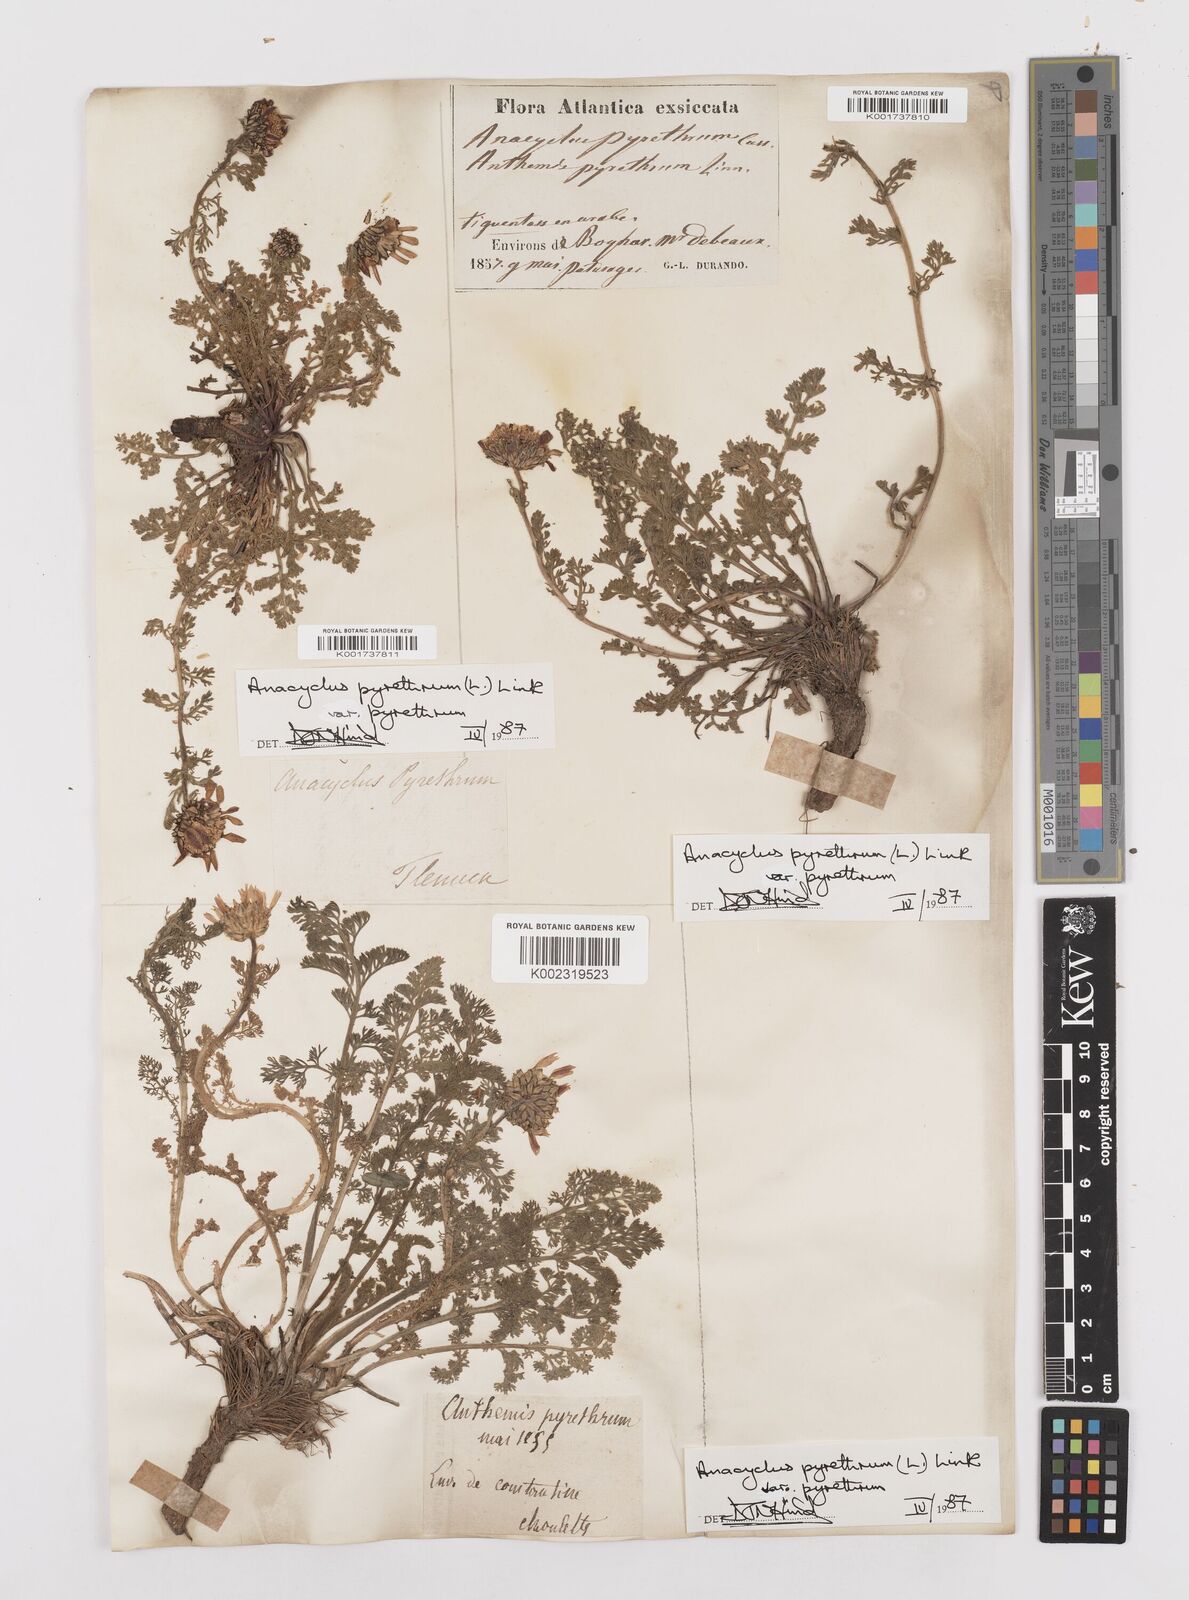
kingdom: Plantae
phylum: Tracheophyta
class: Magnoliopsida
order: Asterales
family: Asteraceae
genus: Anacyclus
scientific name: Anacyclus pyrethrum
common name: Mt. atlas daisy
